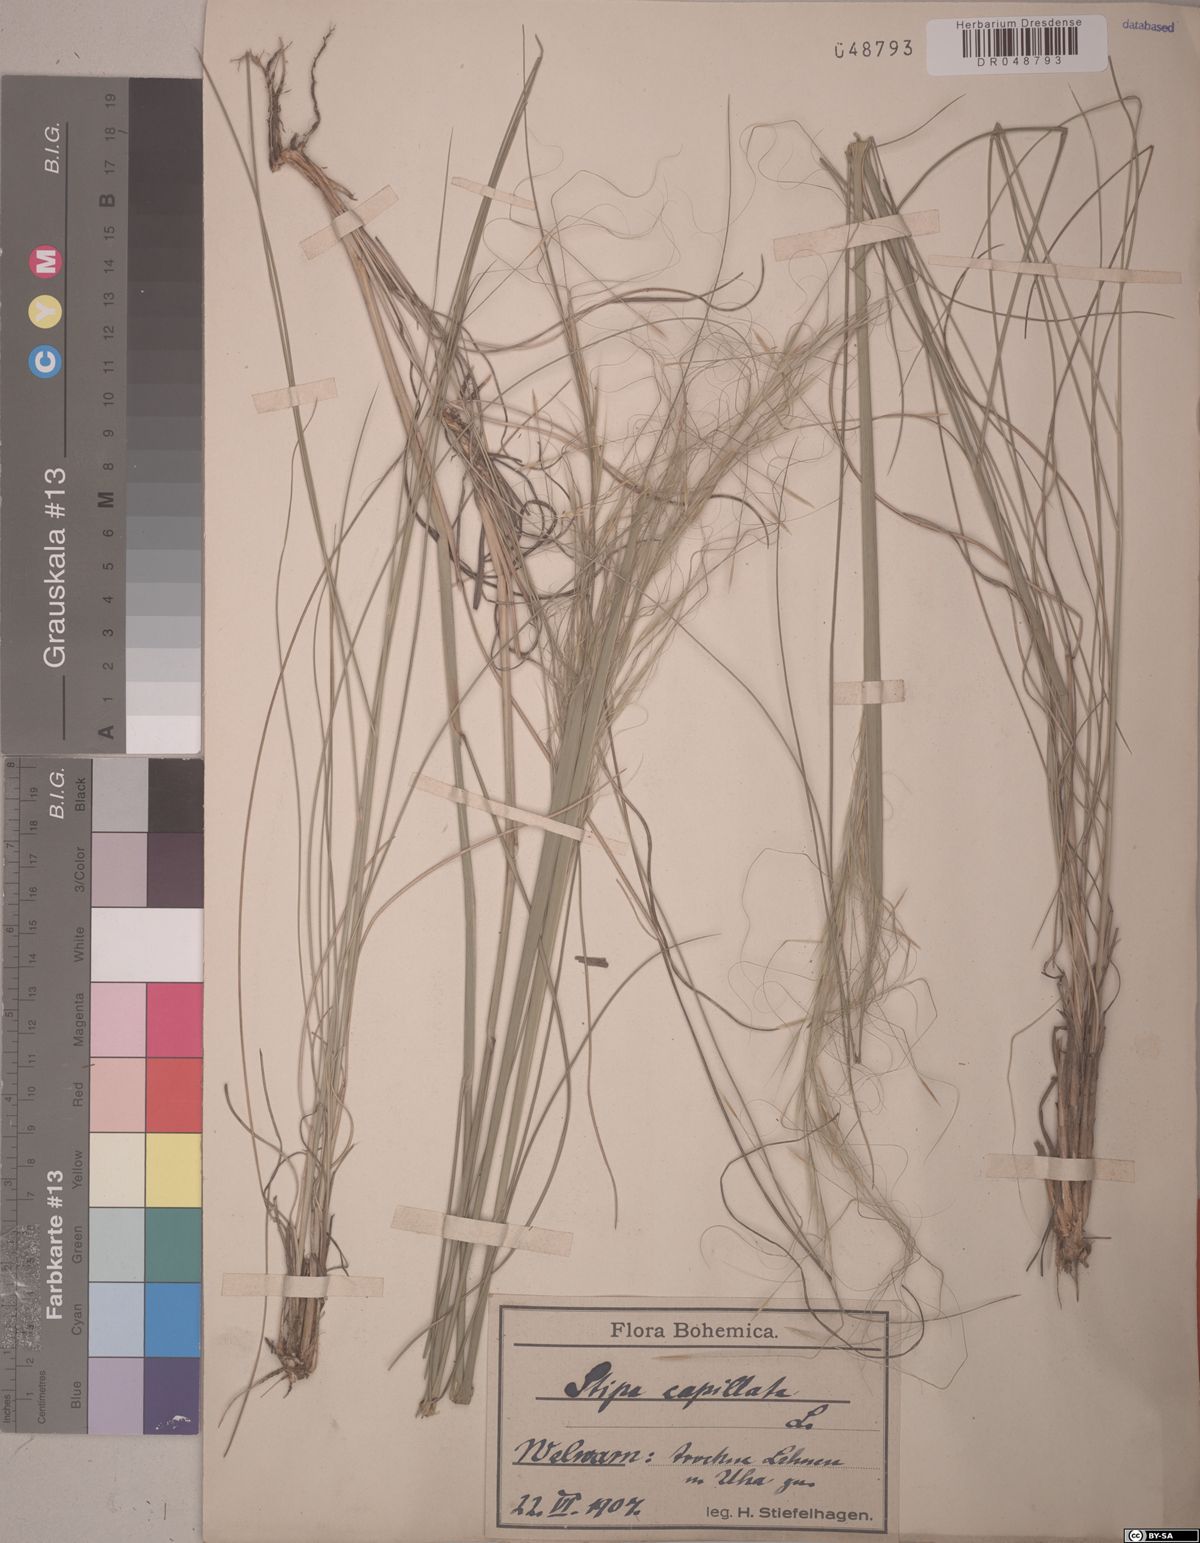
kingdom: Plantae
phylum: Tracheophyta
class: Liliopsida
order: Poales
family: Poaceae
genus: Stipa
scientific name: Stipa capillata
